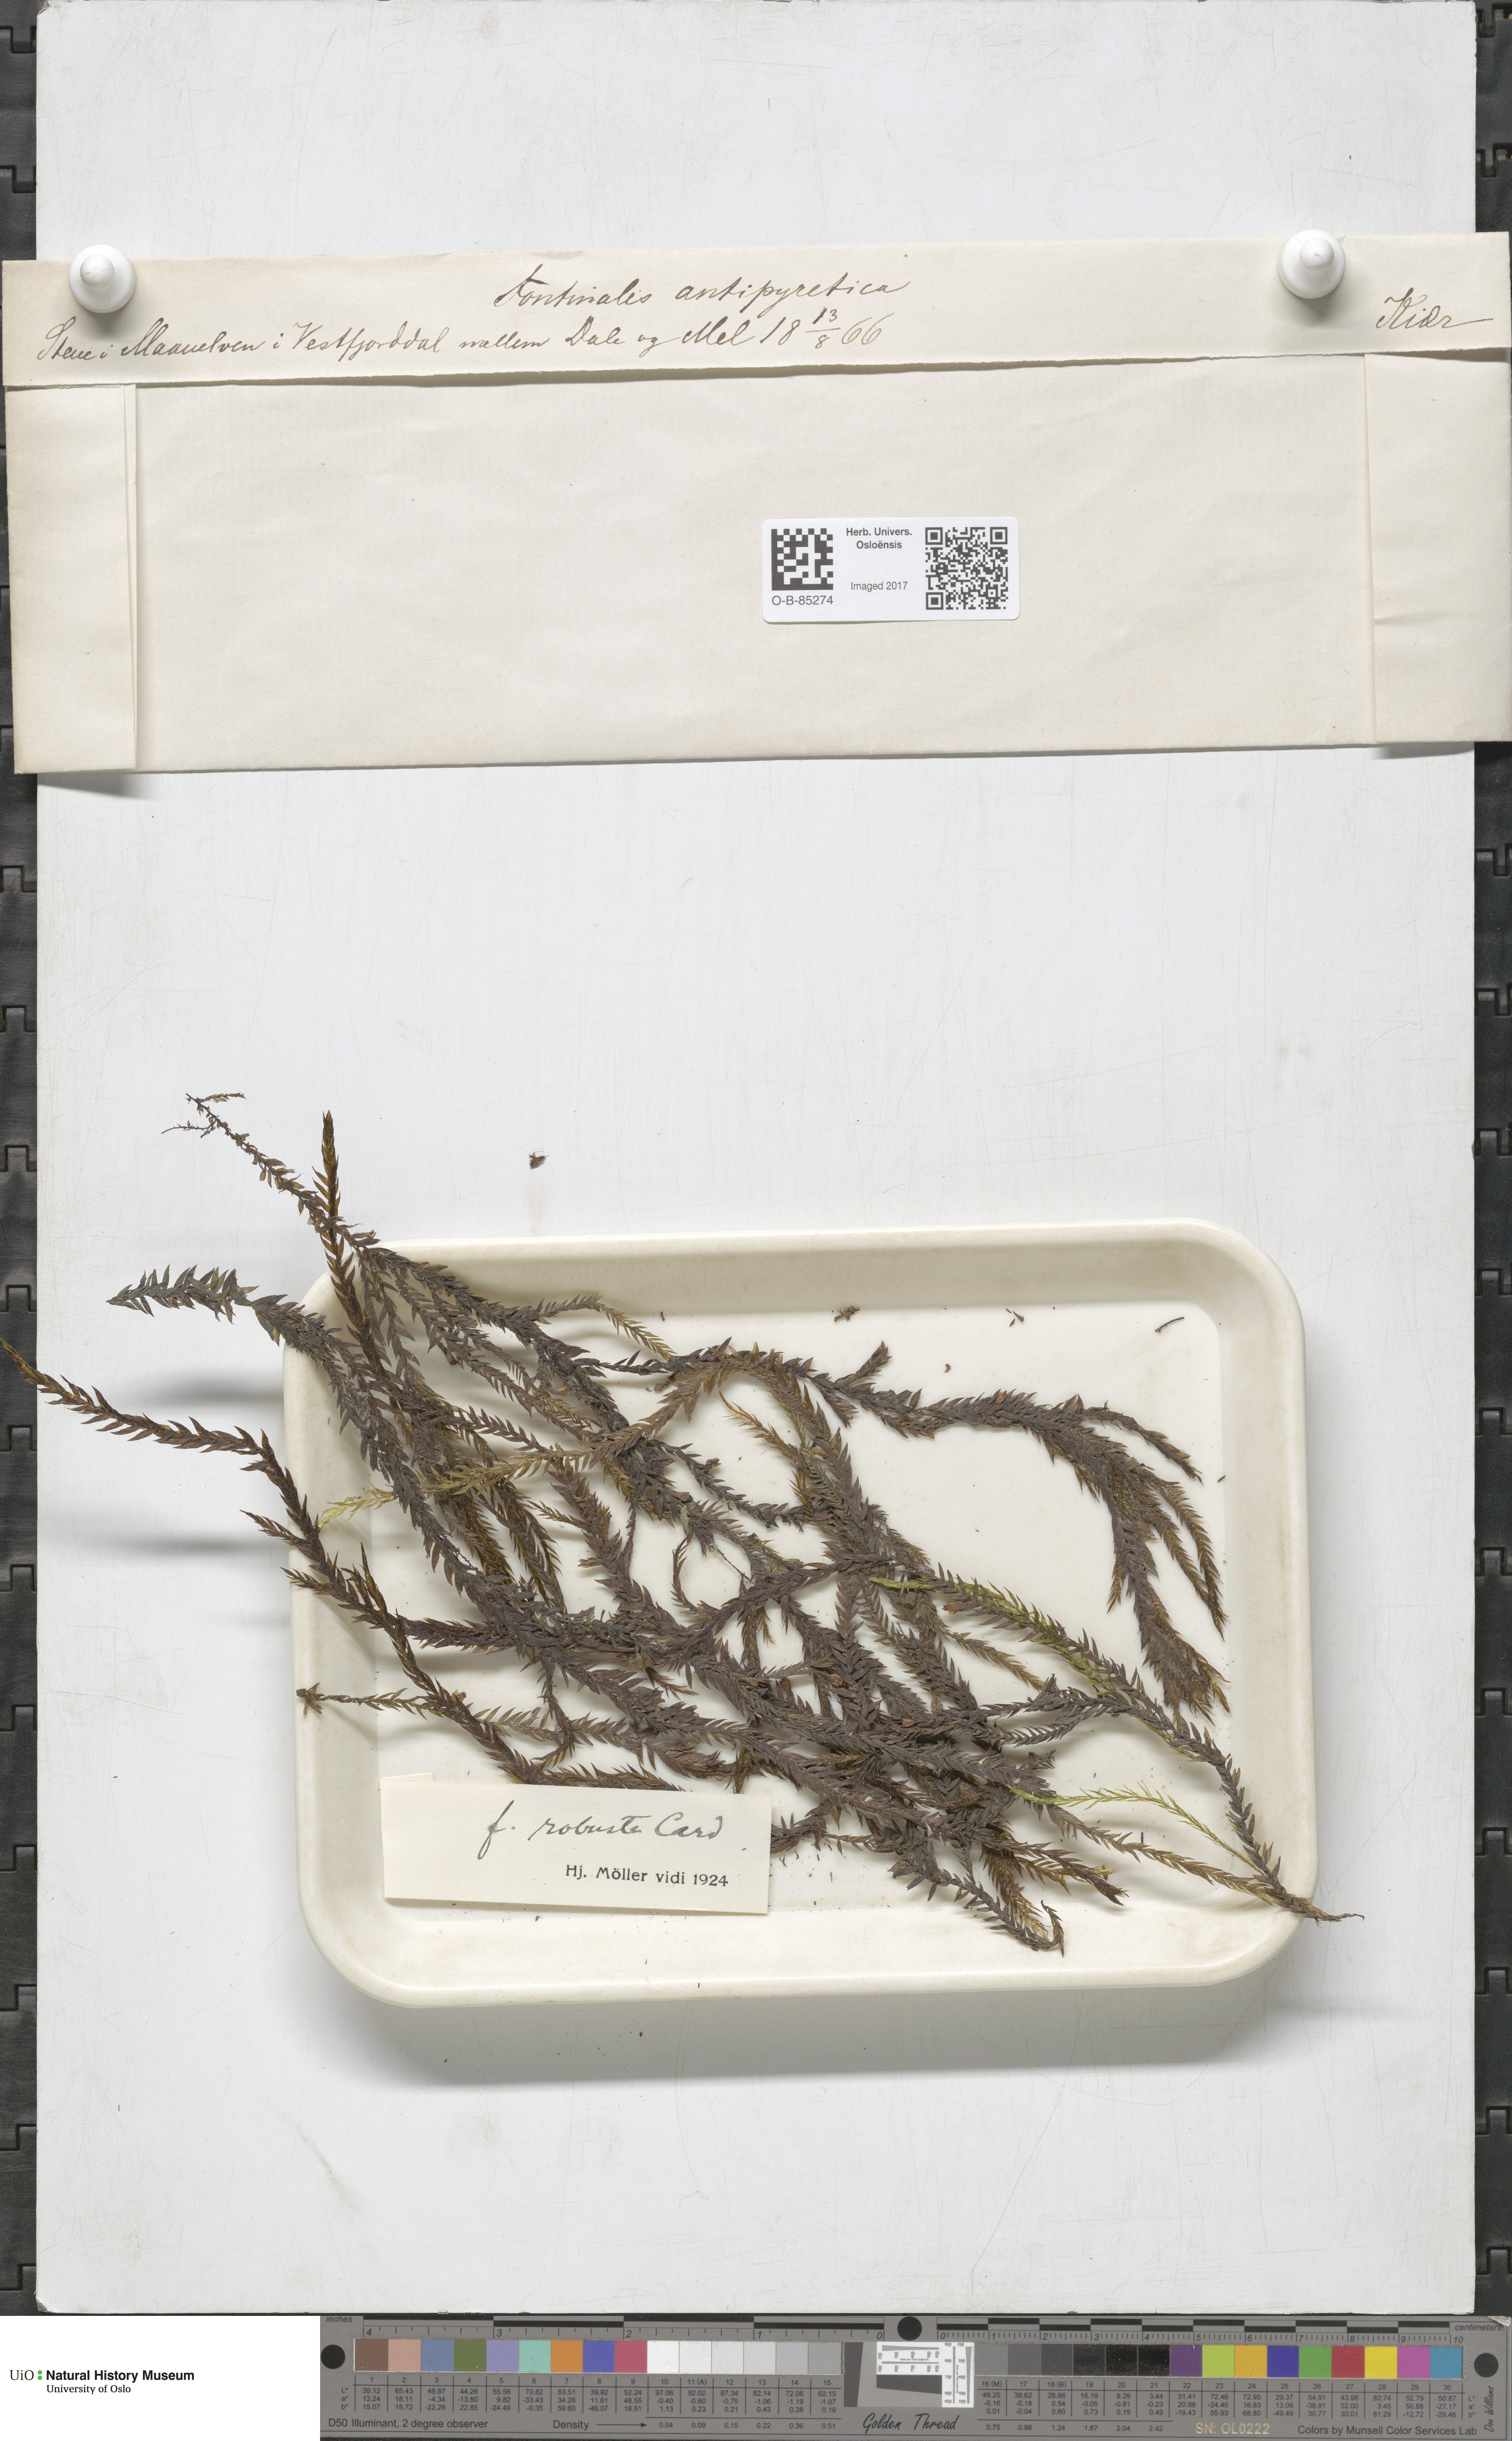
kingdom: Plantae
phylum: Bryophyta
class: Bryopsida
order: Hypnales
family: Fontinalaceae
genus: Fontinalis
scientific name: Fontinalis antipyretica
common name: Greater water-moss
